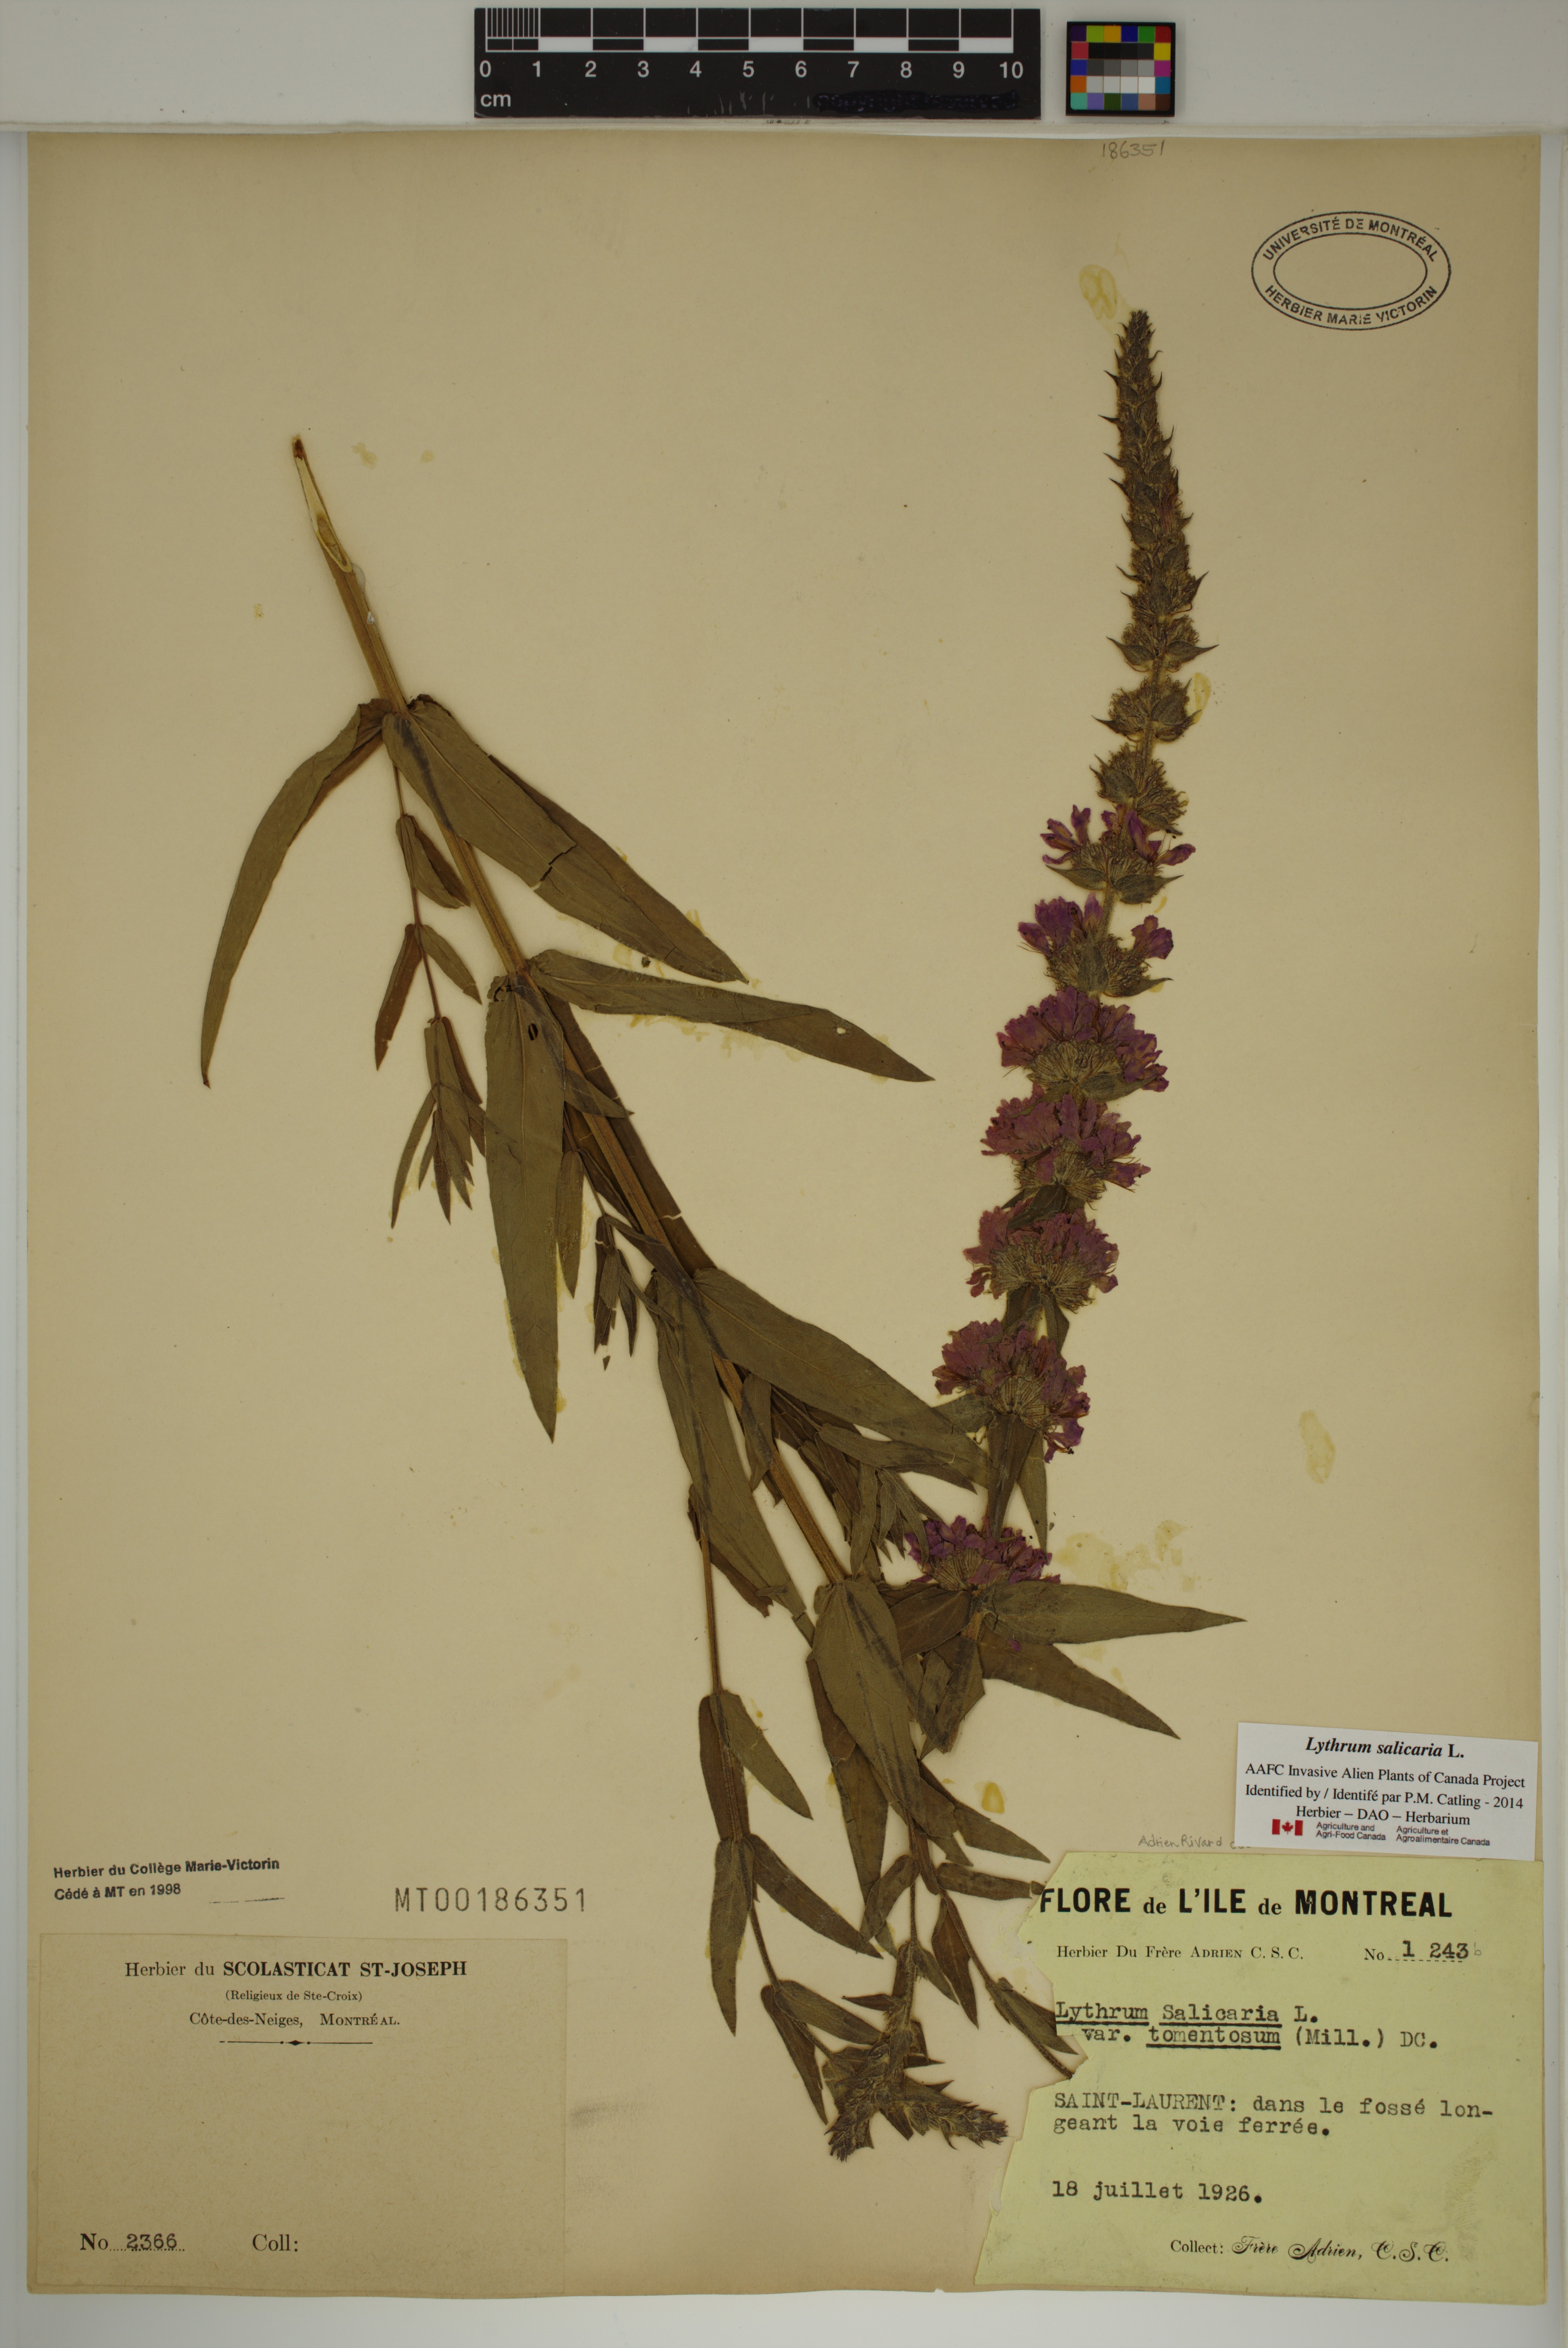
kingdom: Plantae
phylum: Tracheophyta
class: Magnoliopsida
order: Myrtales
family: Lythraceae
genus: Lythrum
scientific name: Lythrum salicaria
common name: Purple loosestrife
